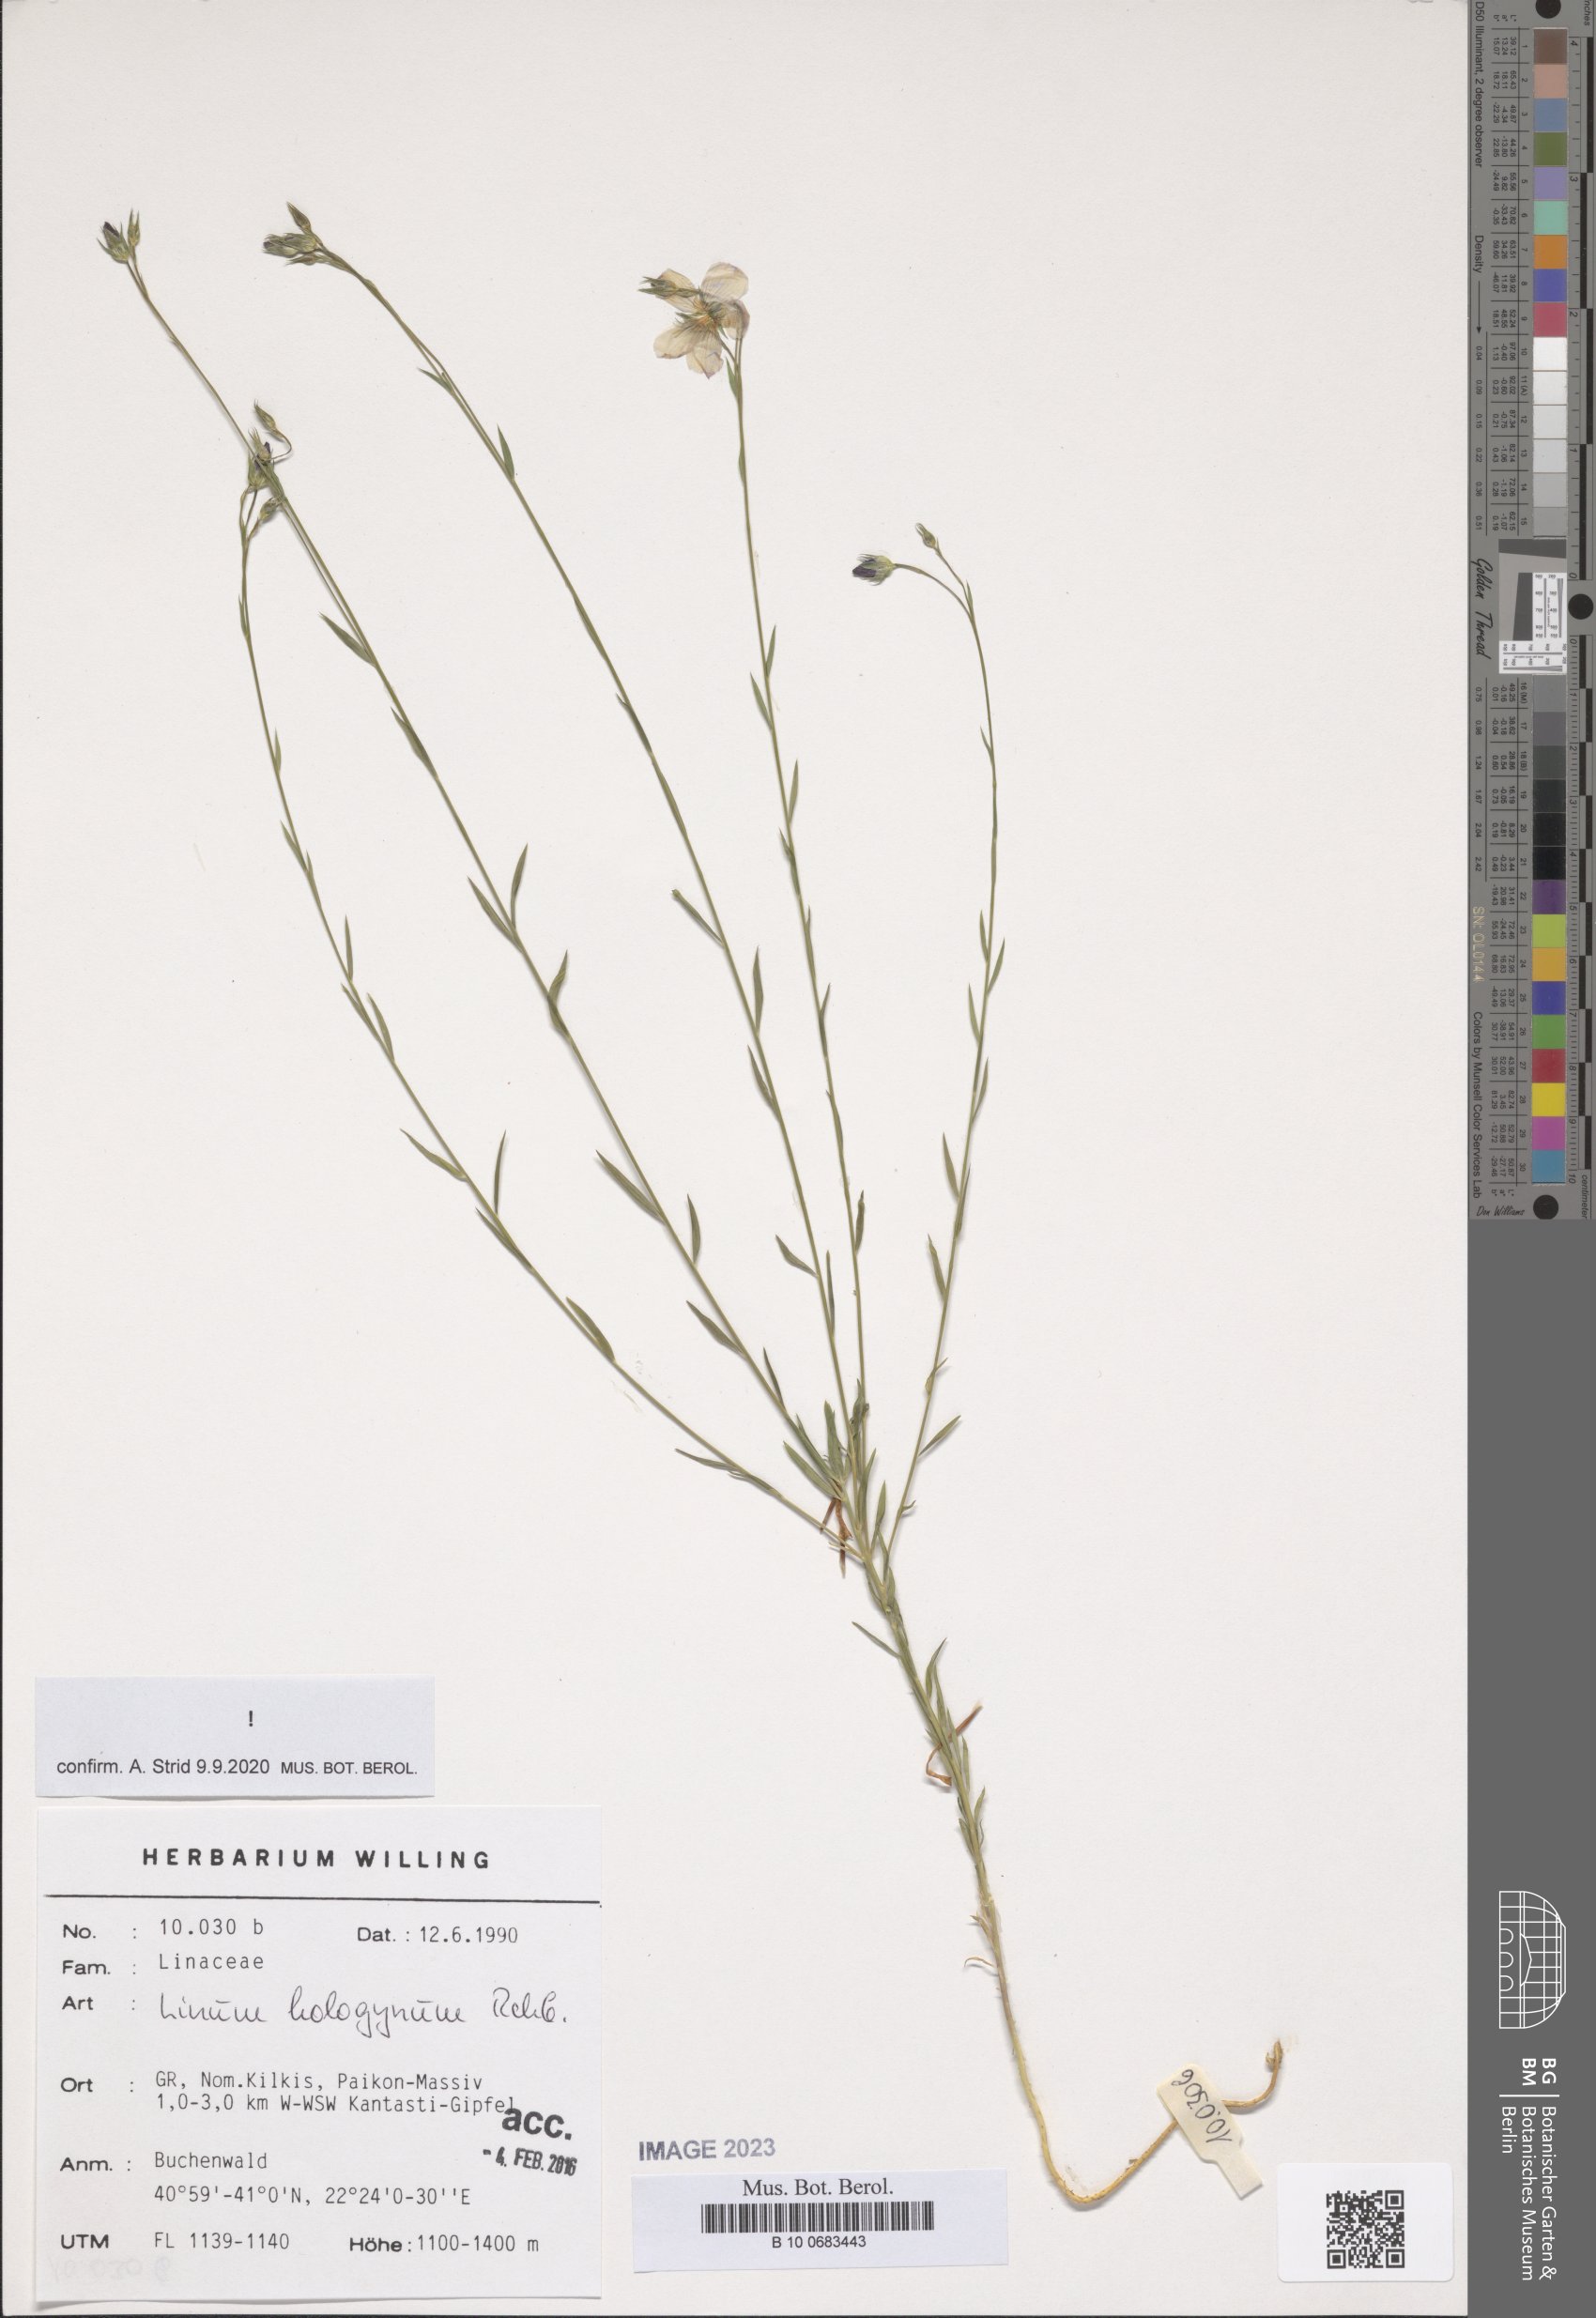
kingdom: Plantae
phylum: Tracheophyta
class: Magnoliopsida
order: Malpighiales
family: Linaceae
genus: Linum
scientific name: Linum hologynum
